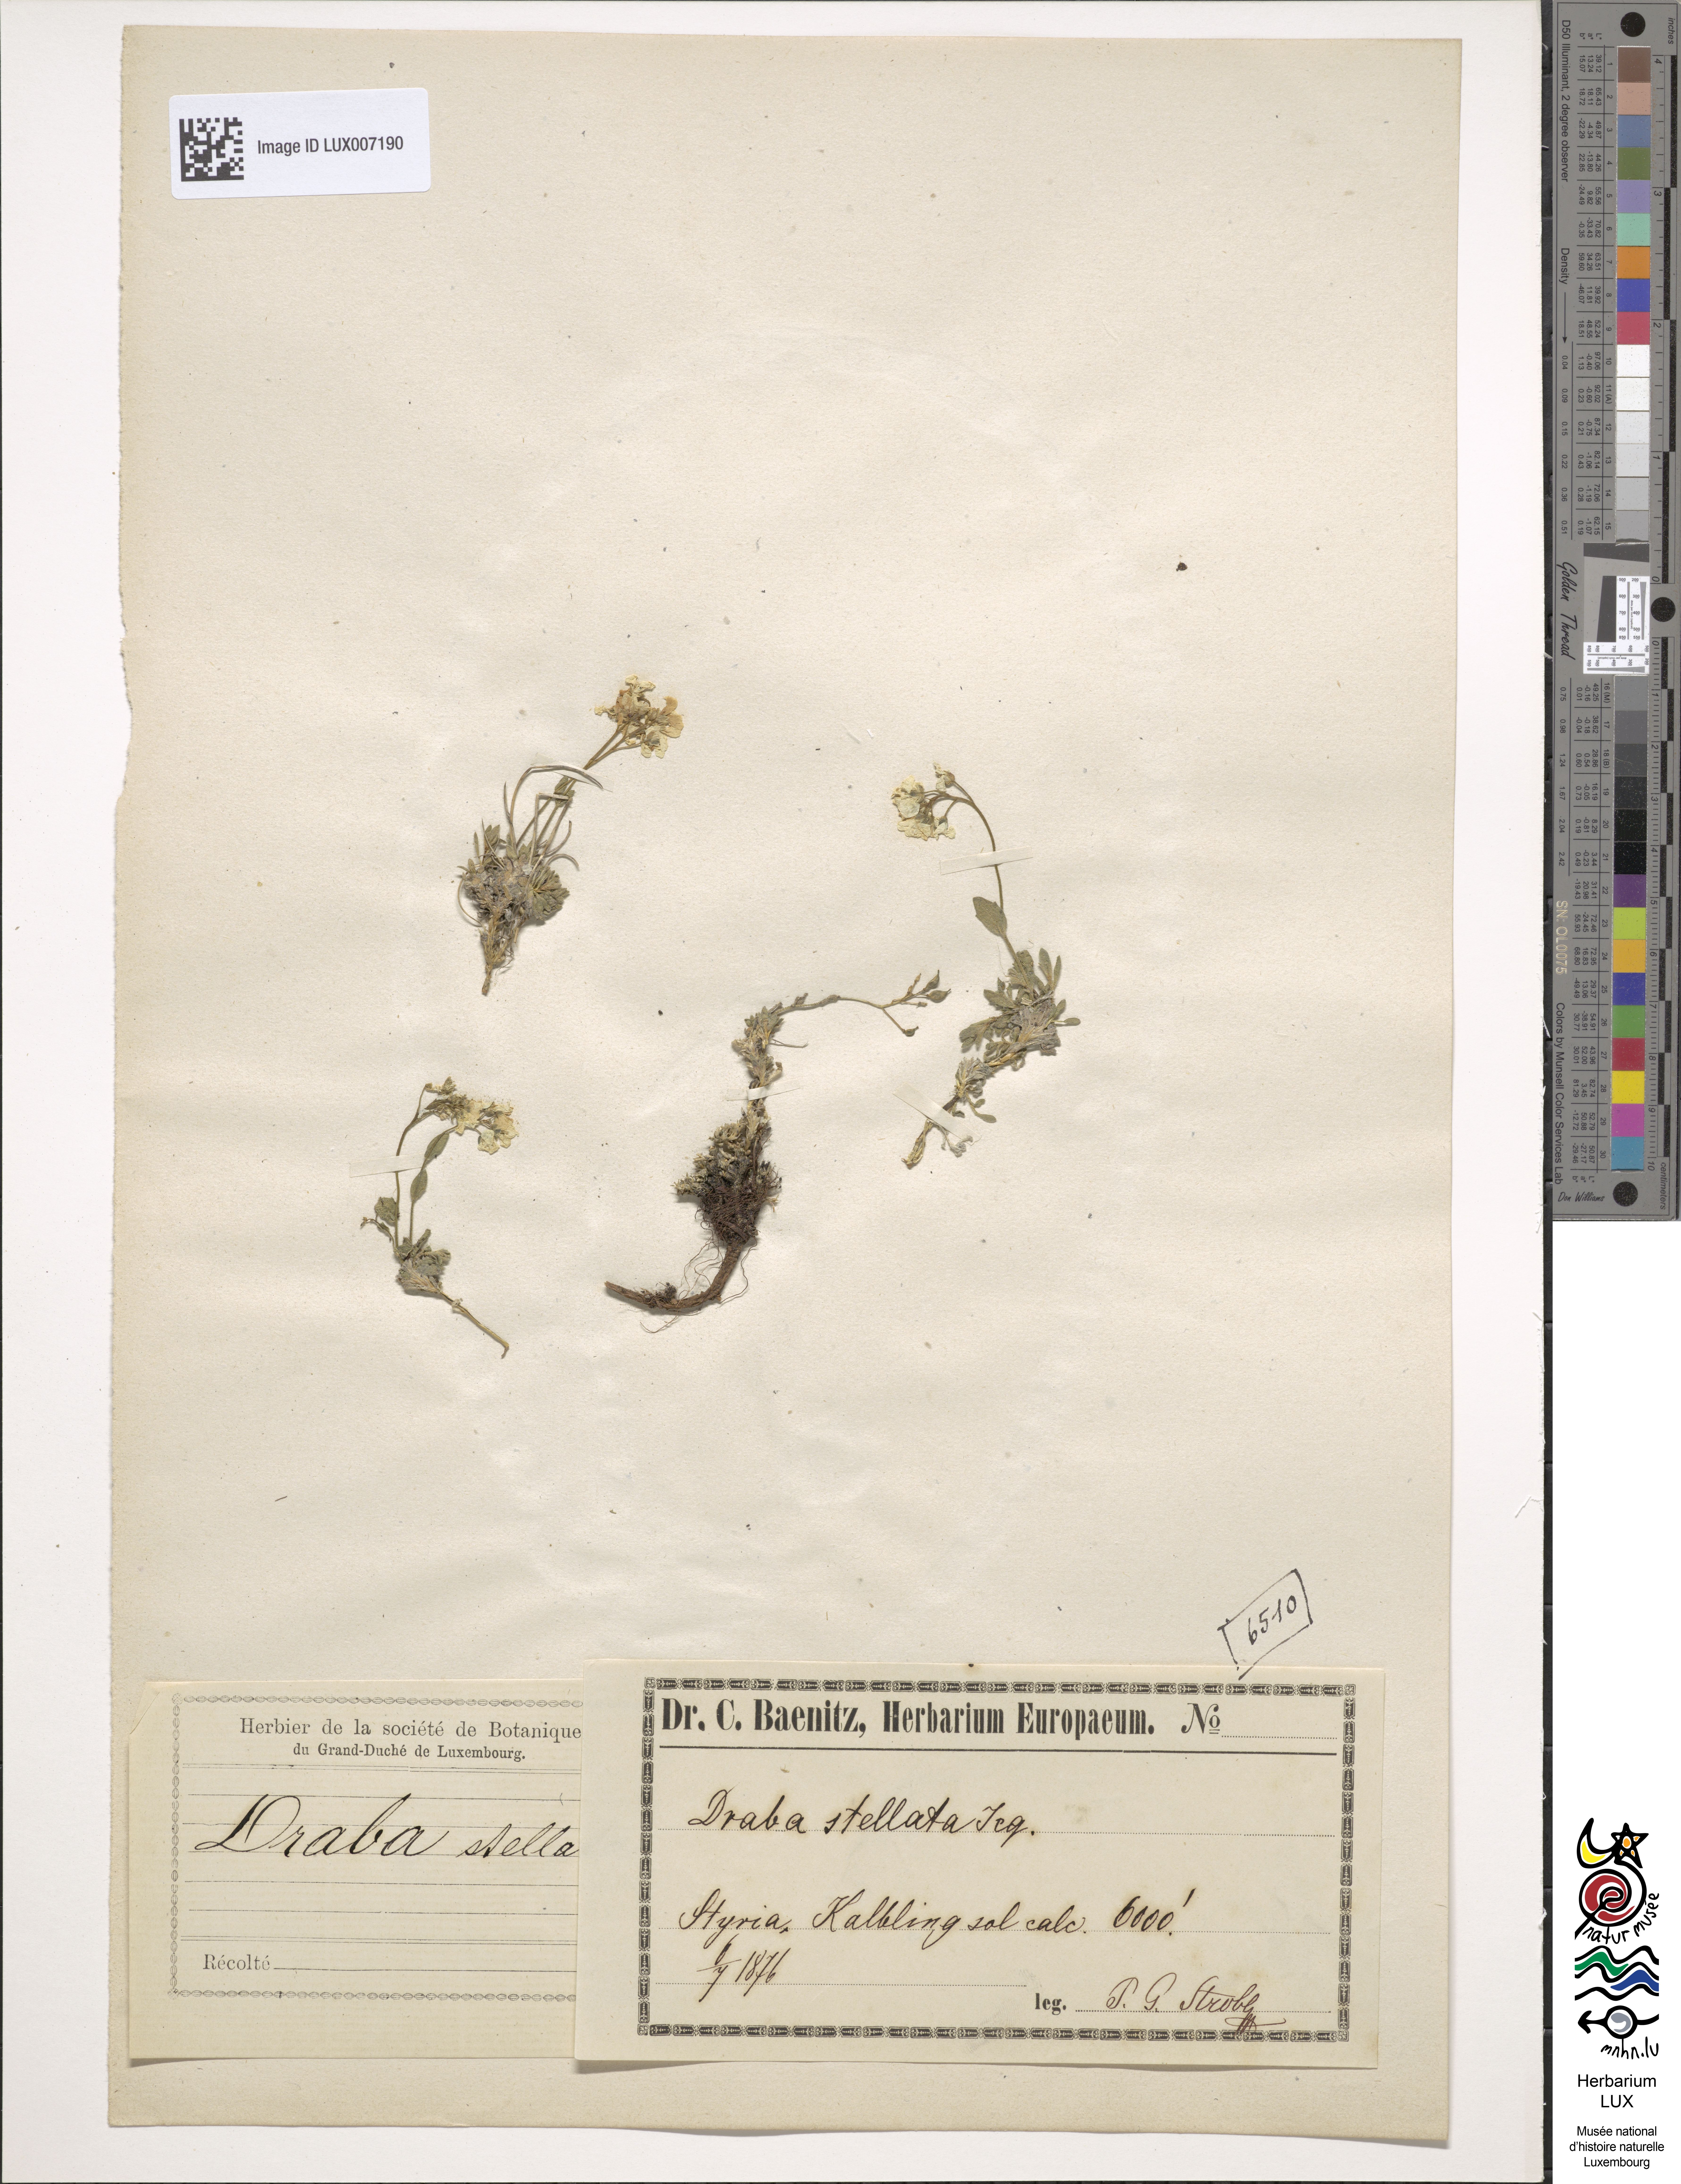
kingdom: Plantae
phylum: Tracheophyta
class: Magnoliopsida
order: Brassicales
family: Brassicaceae
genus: Draba
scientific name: Draba stellata
